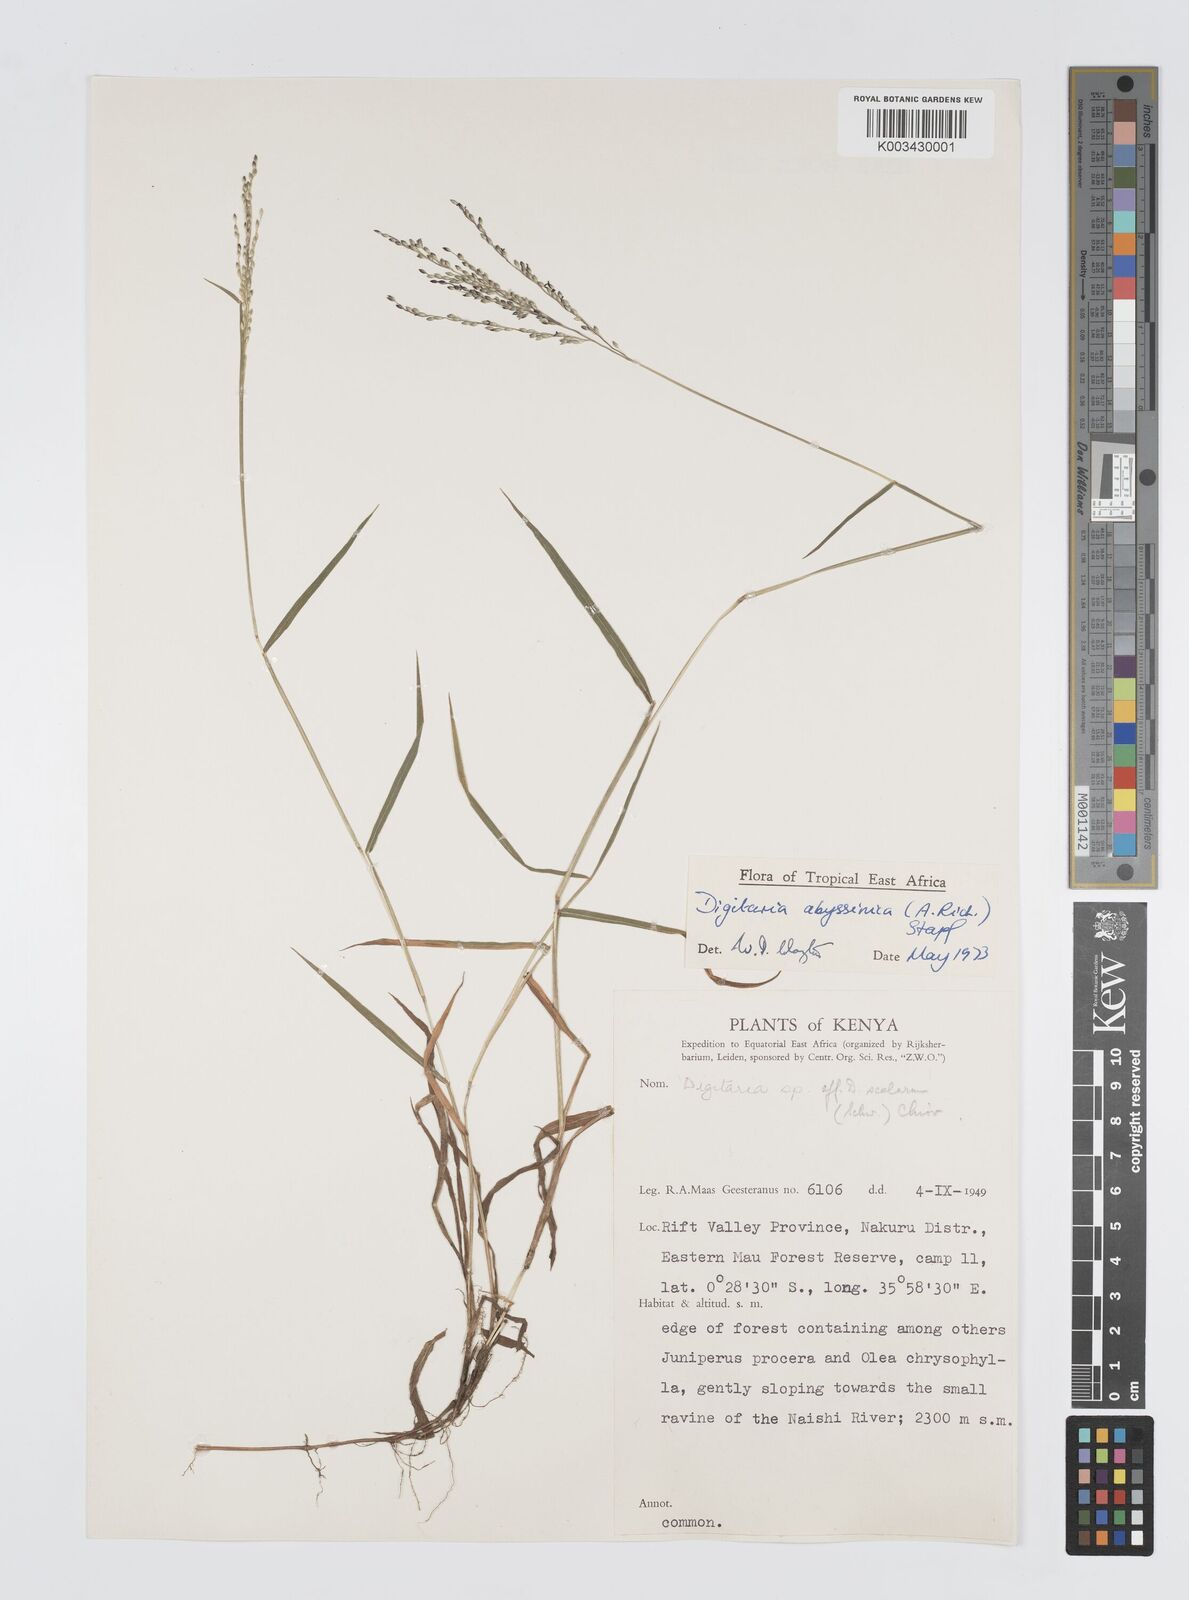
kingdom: Plantae
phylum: Tracheophyta
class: Liliopsida
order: Poales
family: Poaceae
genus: Digitaria
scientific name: Digitaria abyssinica
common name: African couchgrass
